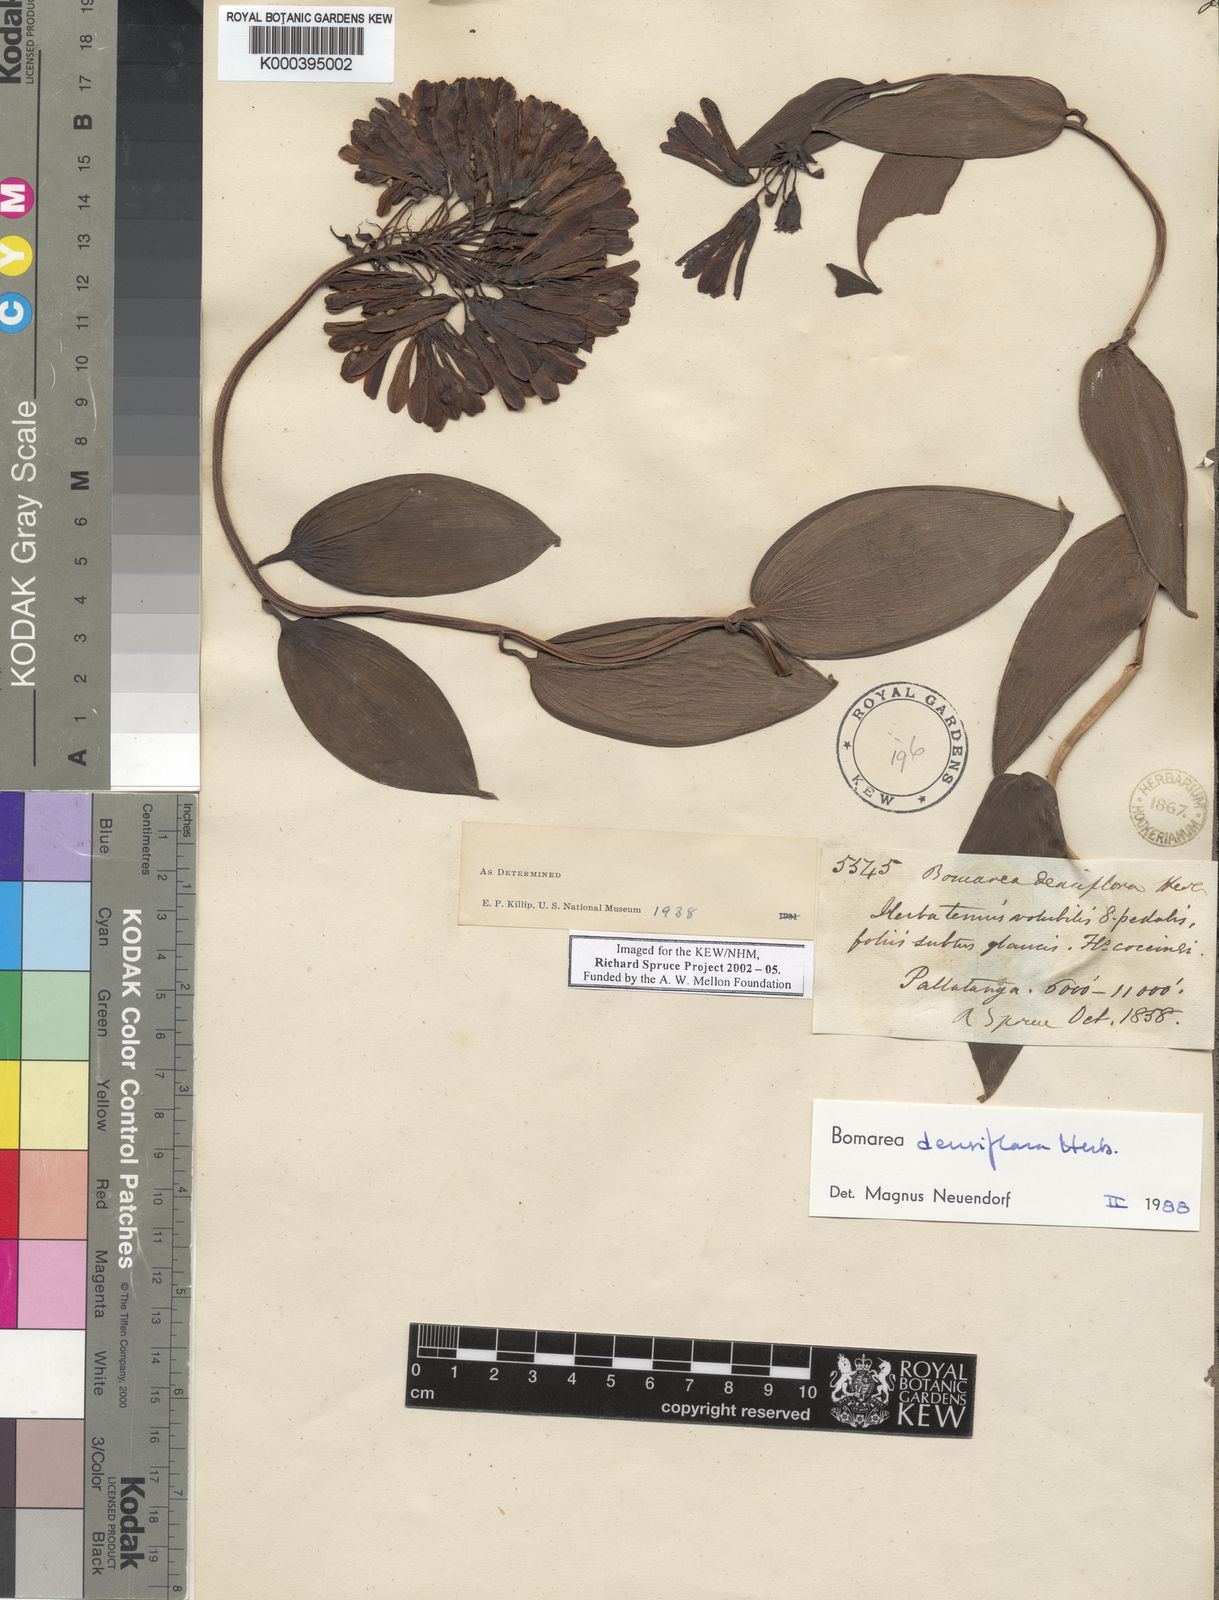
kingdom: Plantae
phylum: Tracheophyta
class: Liliopsida
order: Liliales
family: Alstroemeriaceae
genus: Bomarea
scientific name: Bomarea densiflora
